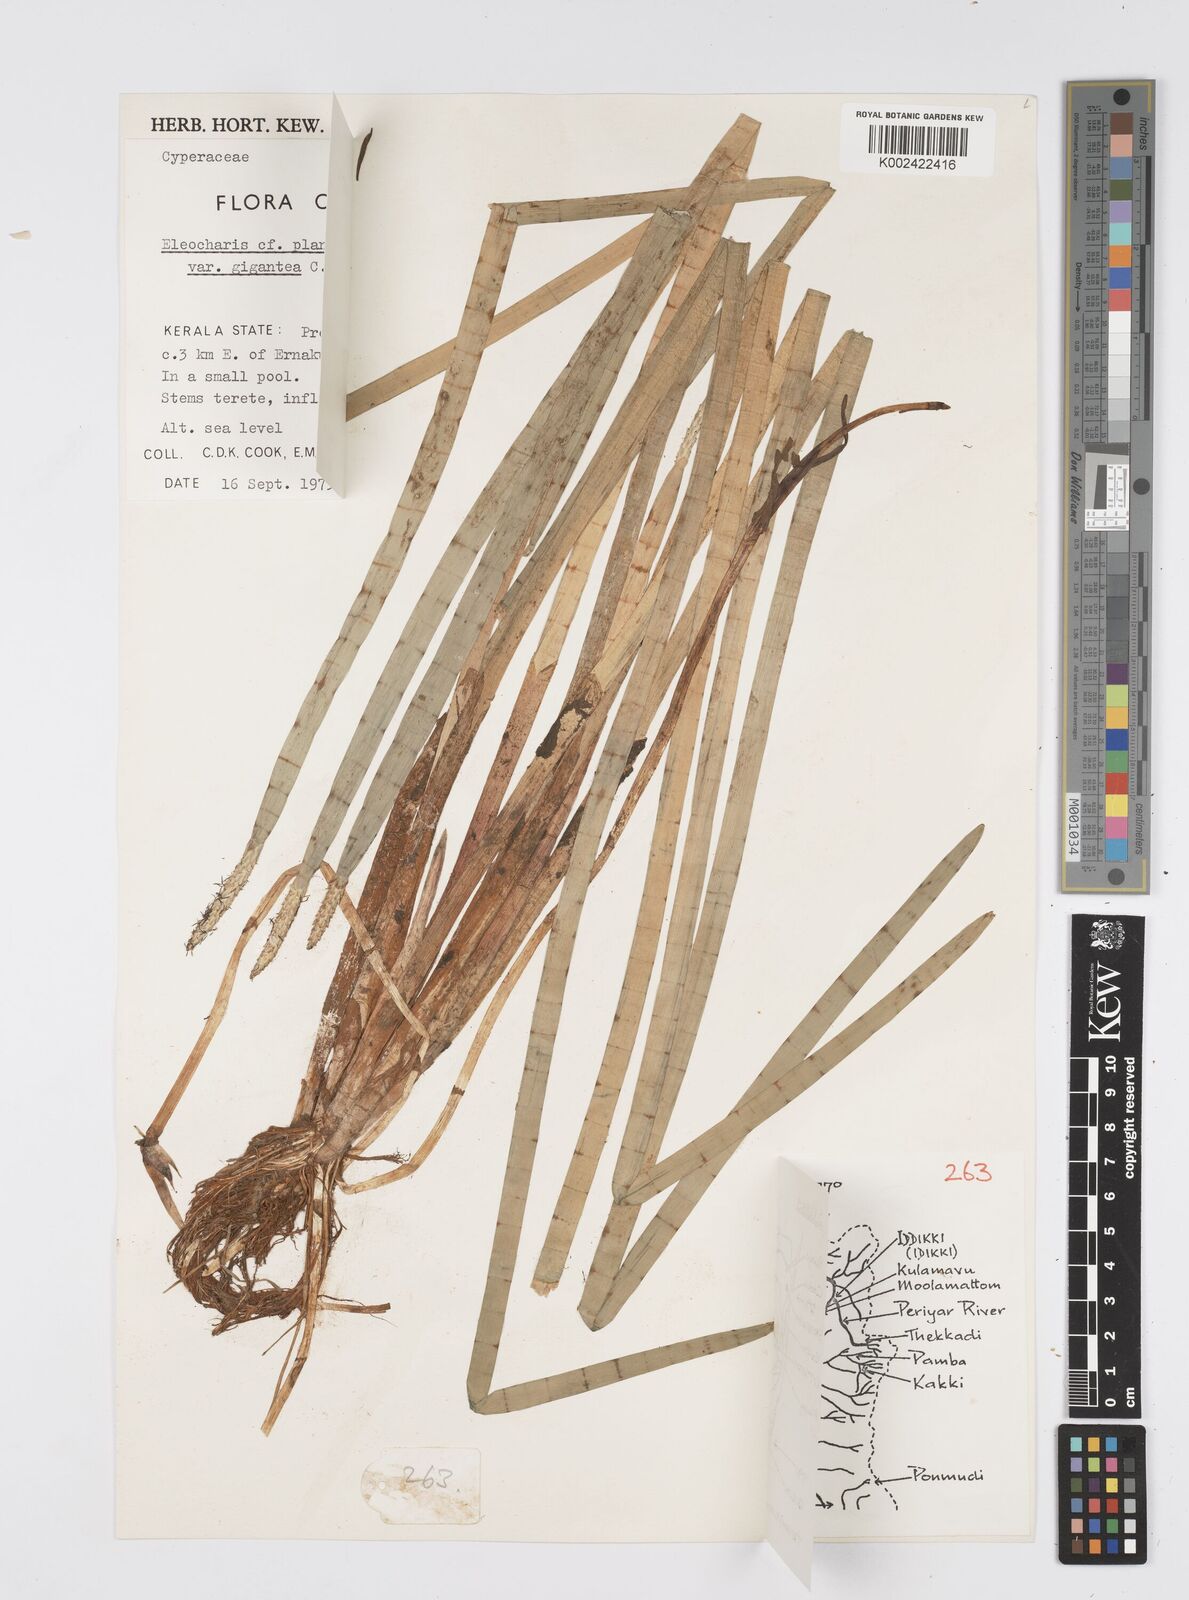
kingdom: Plantae
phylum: Tracheophyta
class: Liliopsida
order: Poales
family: Cyperaceae
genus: Eleocharis
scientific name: Eleocharis obtusa
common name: Blunt spikerush
